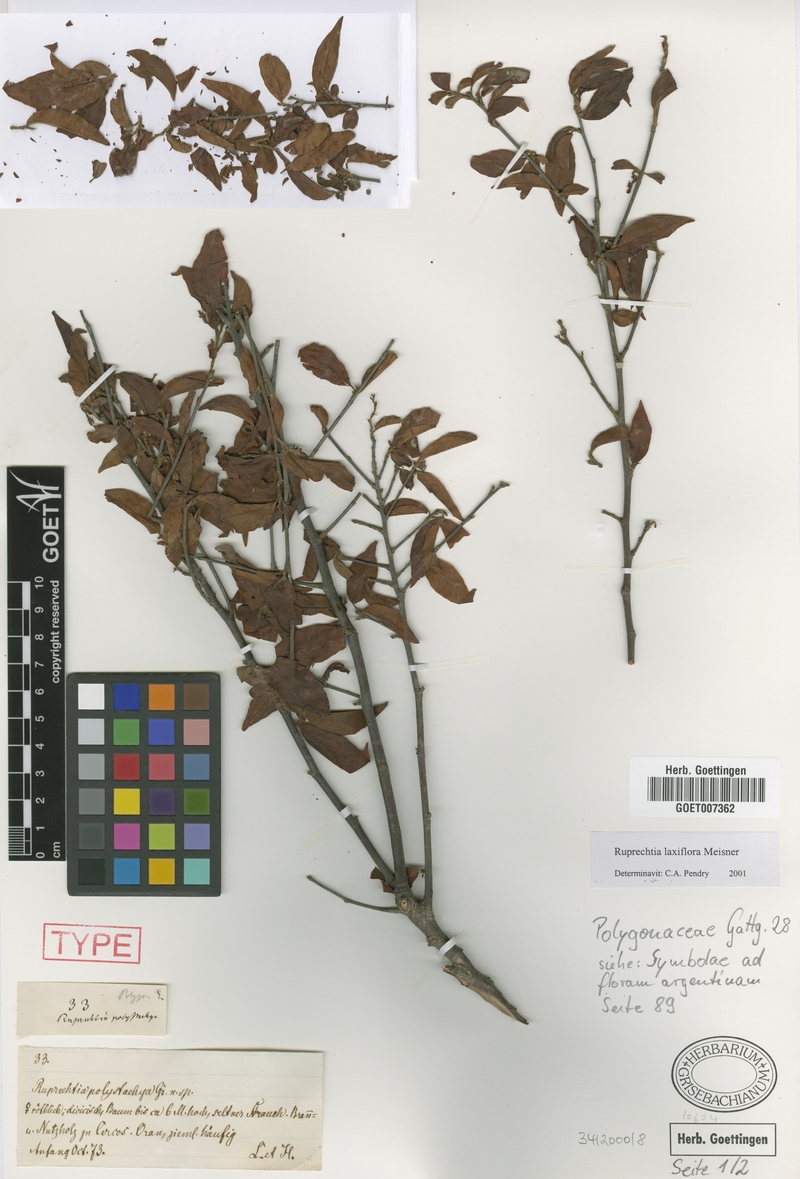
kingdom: Plantae
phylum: Tracheophyta
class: Magnoliopsida
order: Caryophyllales
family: Polygonaceae
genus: Ruprechtia
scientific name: Ruprechtia laxiflora
